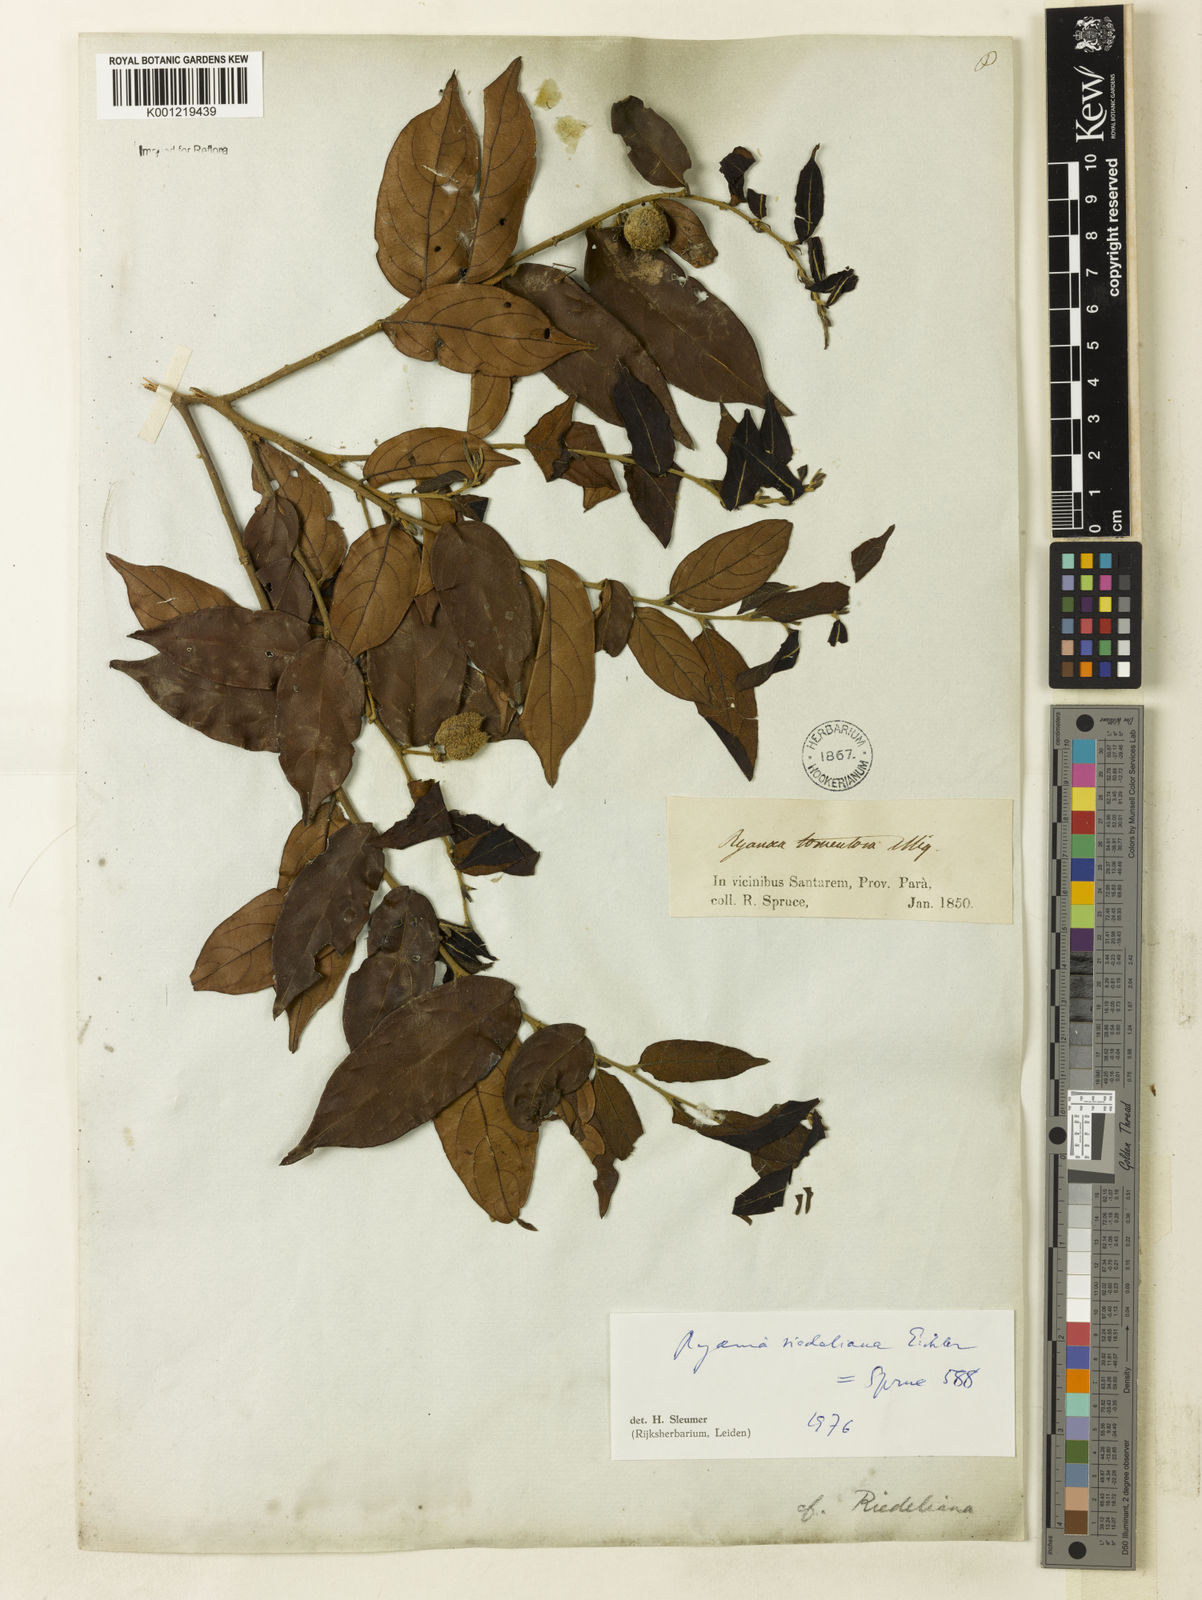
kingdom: Plantae
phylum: Tracheophyta
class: Magnoliopsida
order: Malpighiales
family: Salicaceae
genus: Ryania
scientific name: Ryania riedeliana
